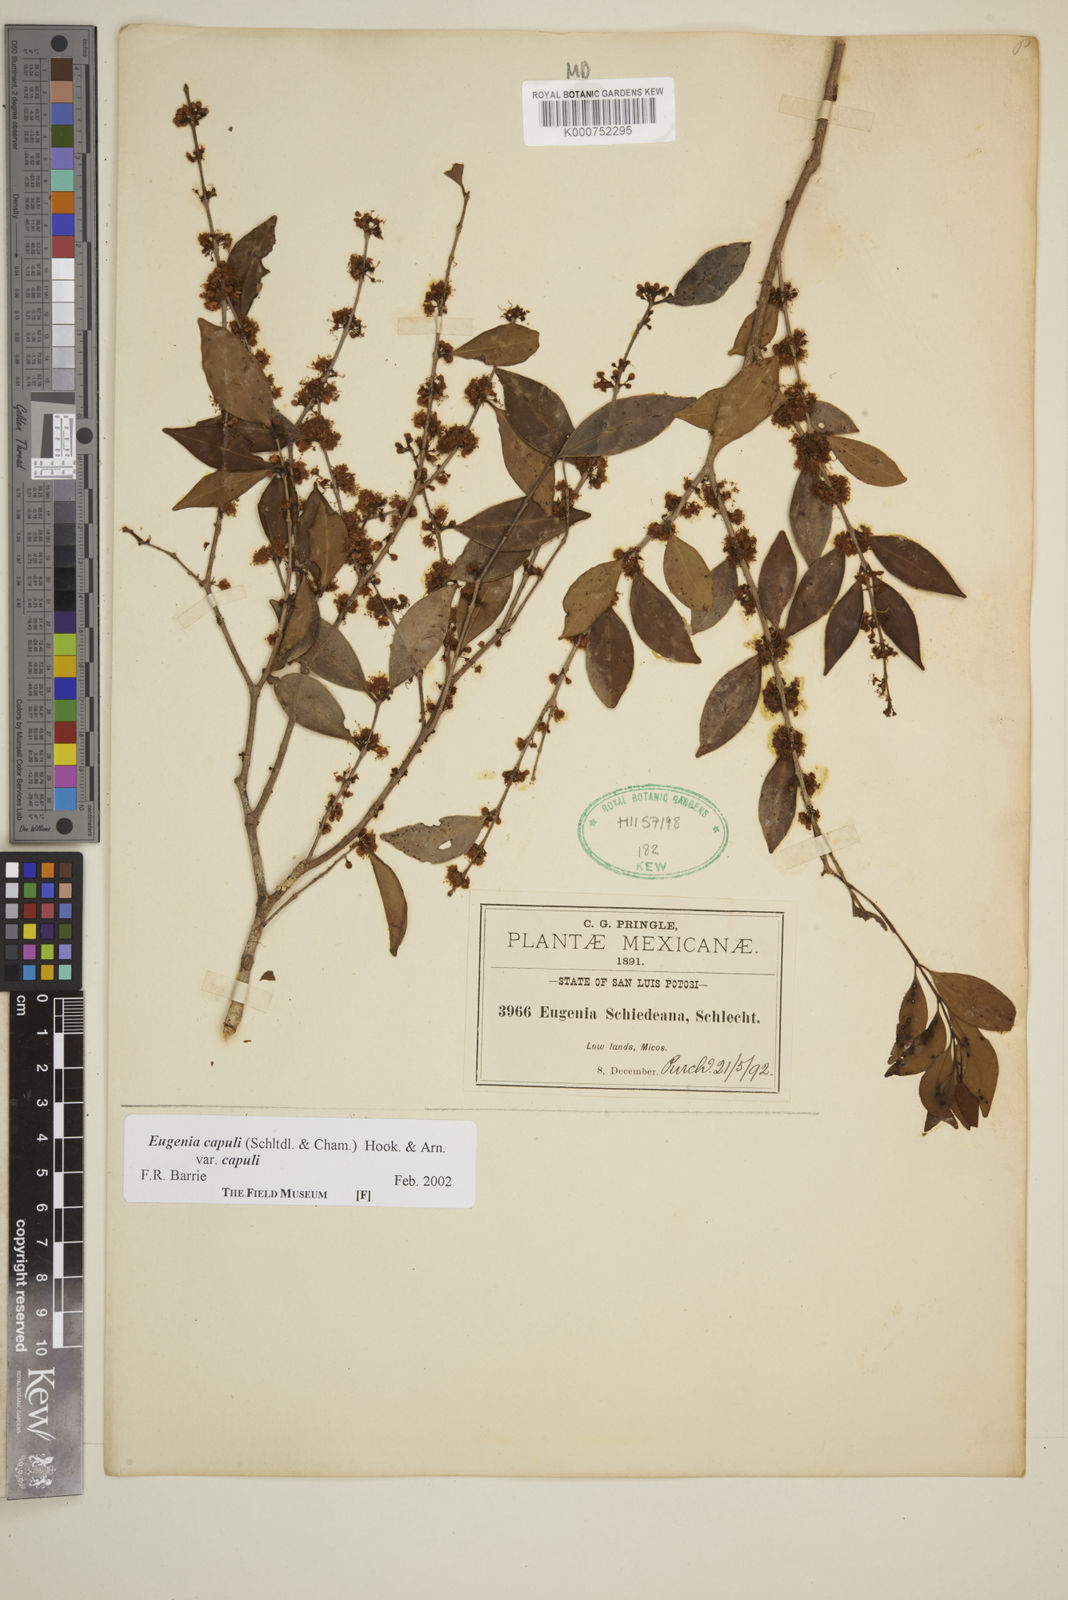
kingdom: Plantae
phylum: Tracheophyta
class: Magnoliopsida
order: Myrtales
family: Myrtaceae
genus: Eugenia
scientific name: Eugenia capuli
